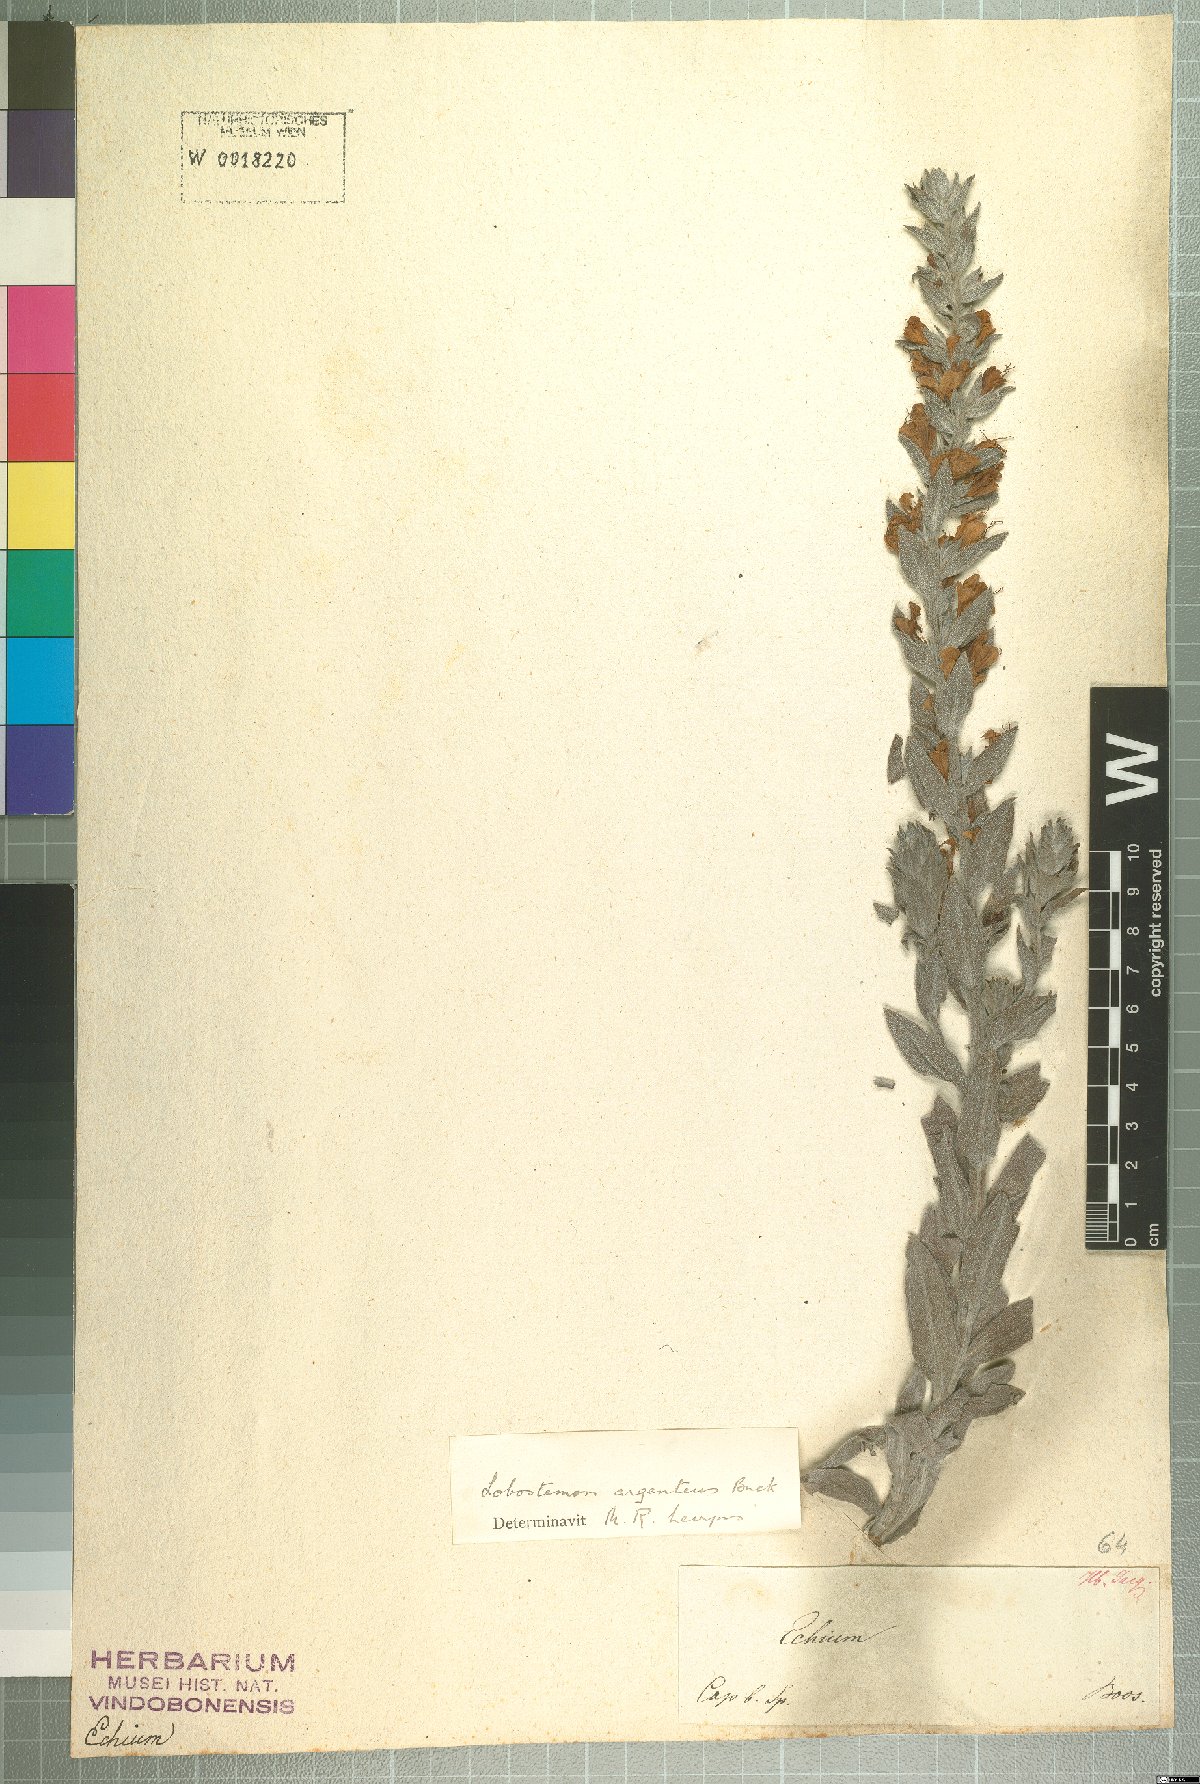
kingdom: Plantae
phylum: Tracheophyta
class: Magnoliopsida
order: Boraginales
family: Boraginaceae
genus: Lobostemon
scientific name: Lobostemon argenteus
